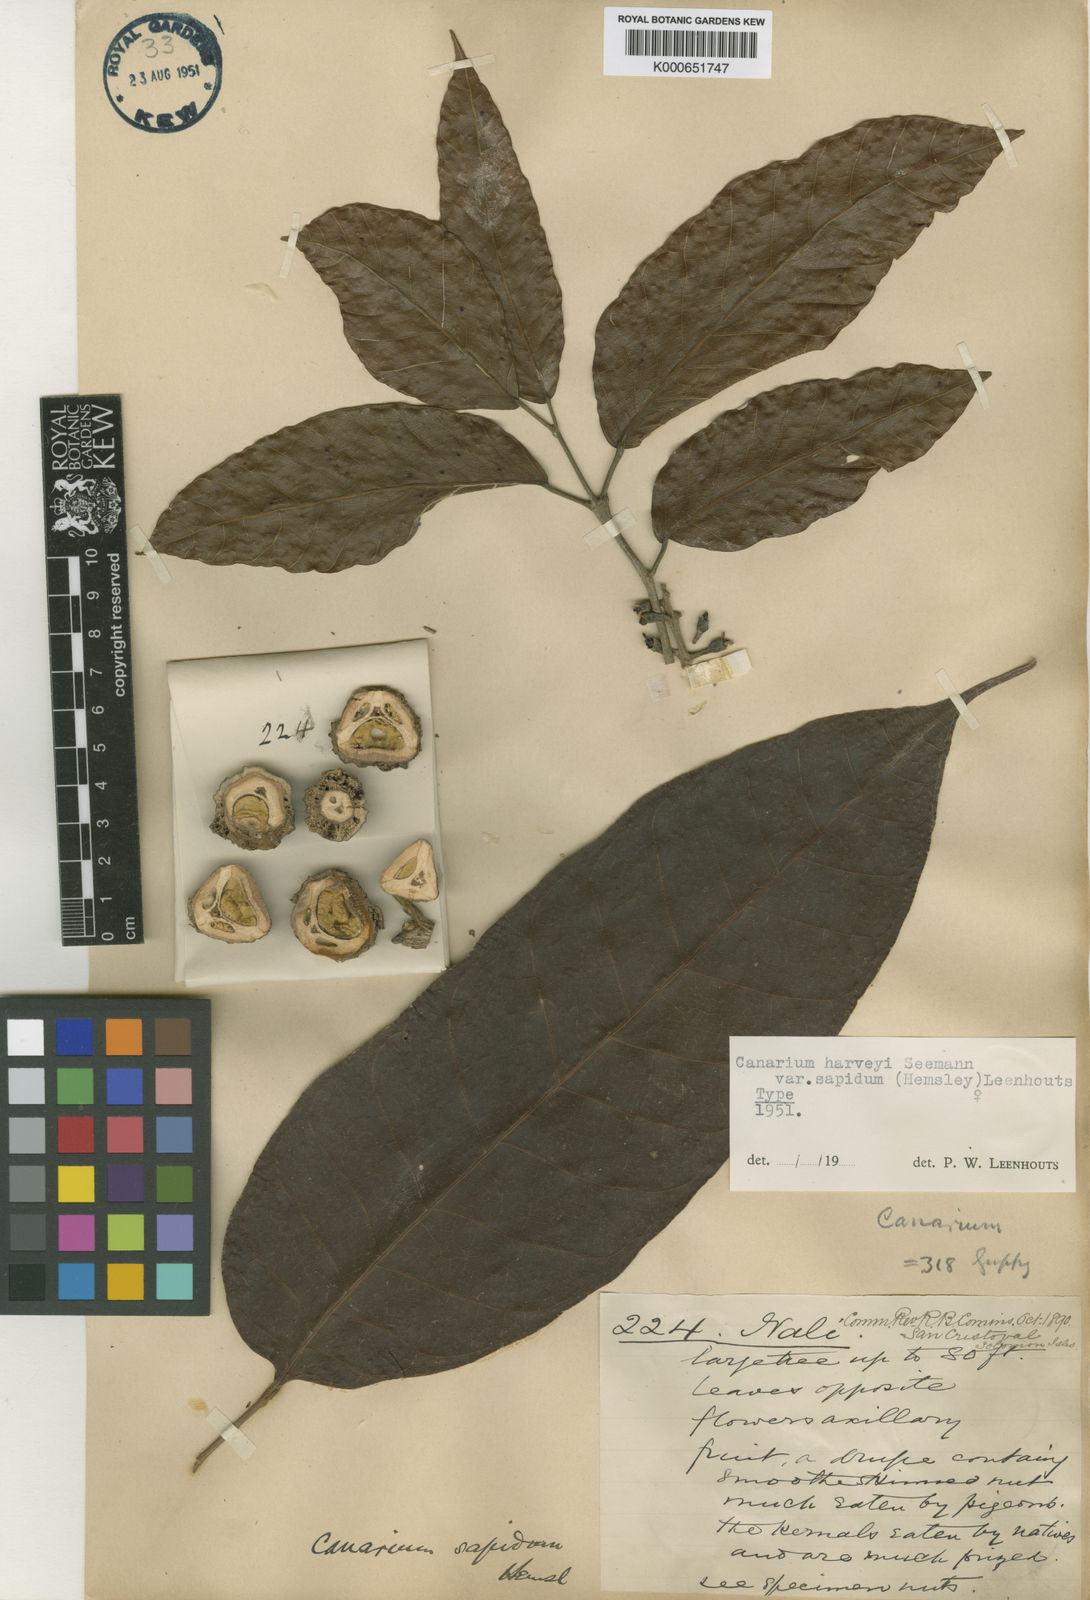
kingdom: Plantae
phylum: Tracheophyta
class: Magnoliopsida
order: Sapindales
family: Burseraceae
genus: Canarium
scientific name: Canarium harveyi
